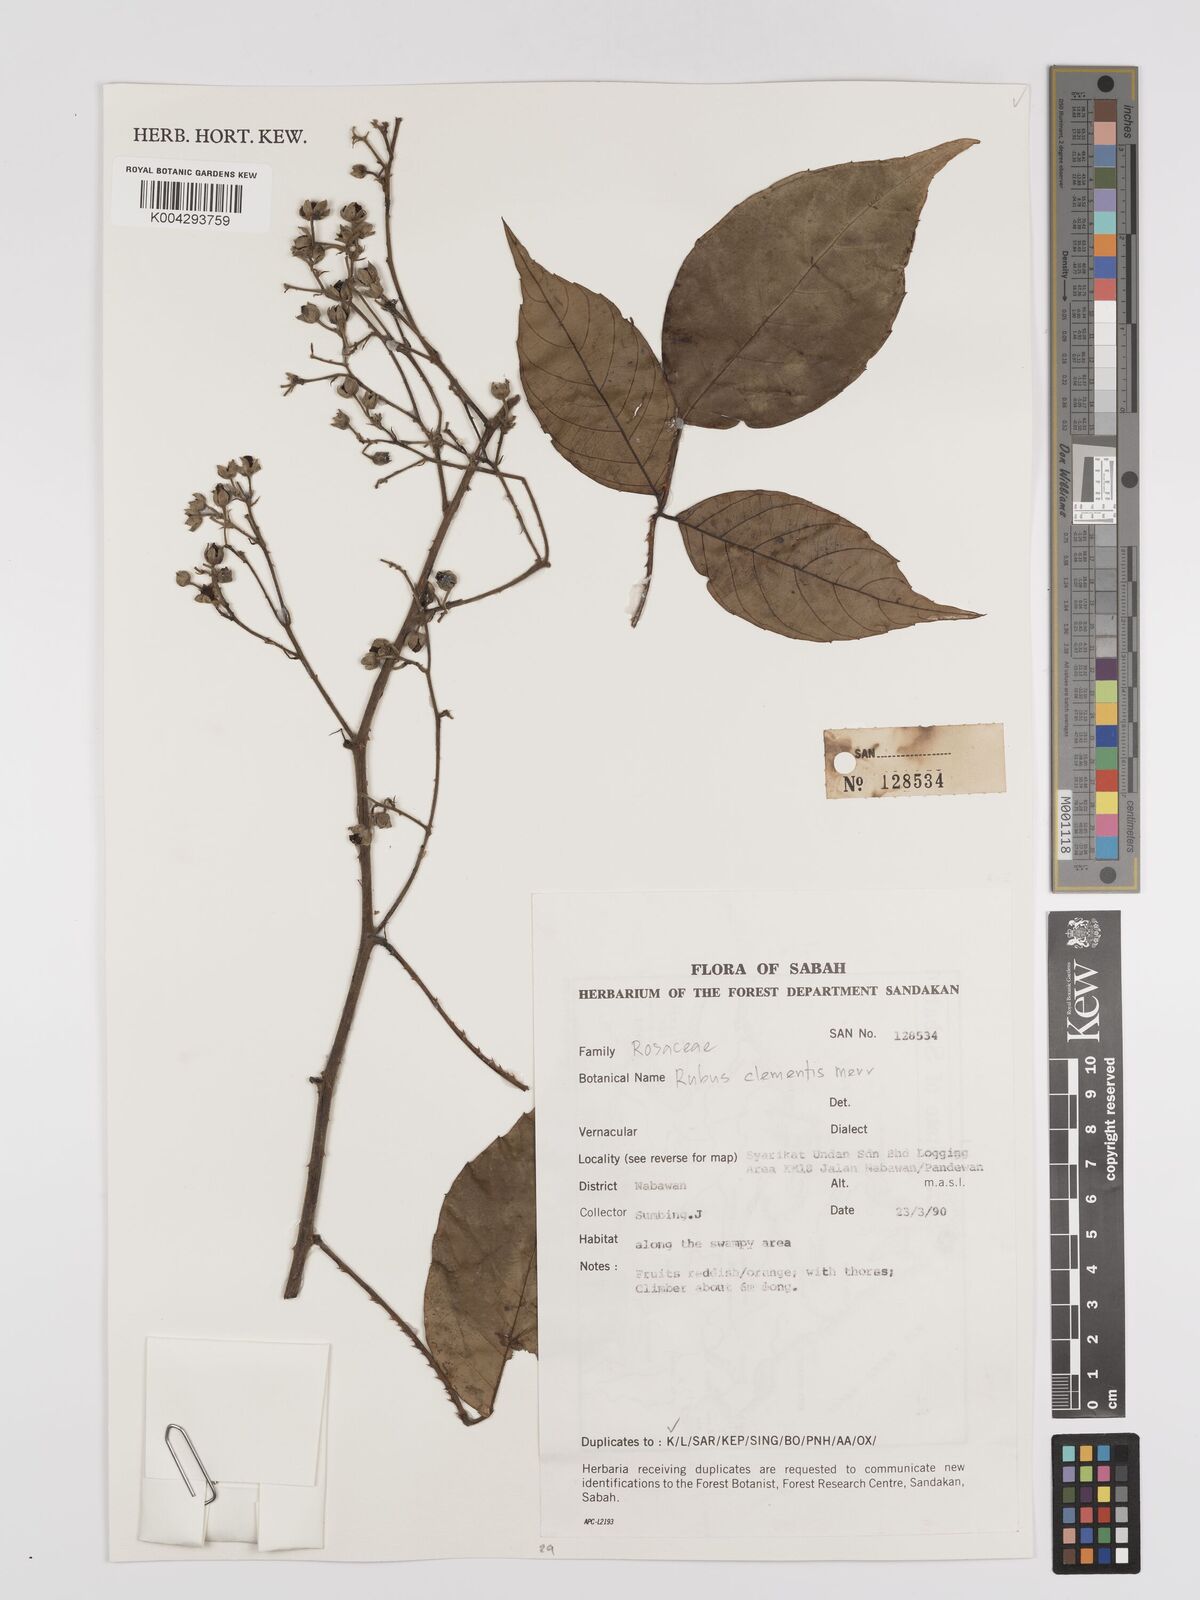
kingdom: Plantae
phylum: Tracheophyta
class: Magnoliopsida
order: Rosales
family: Rosaceae
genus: Rubus
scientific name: Rubus clementis
